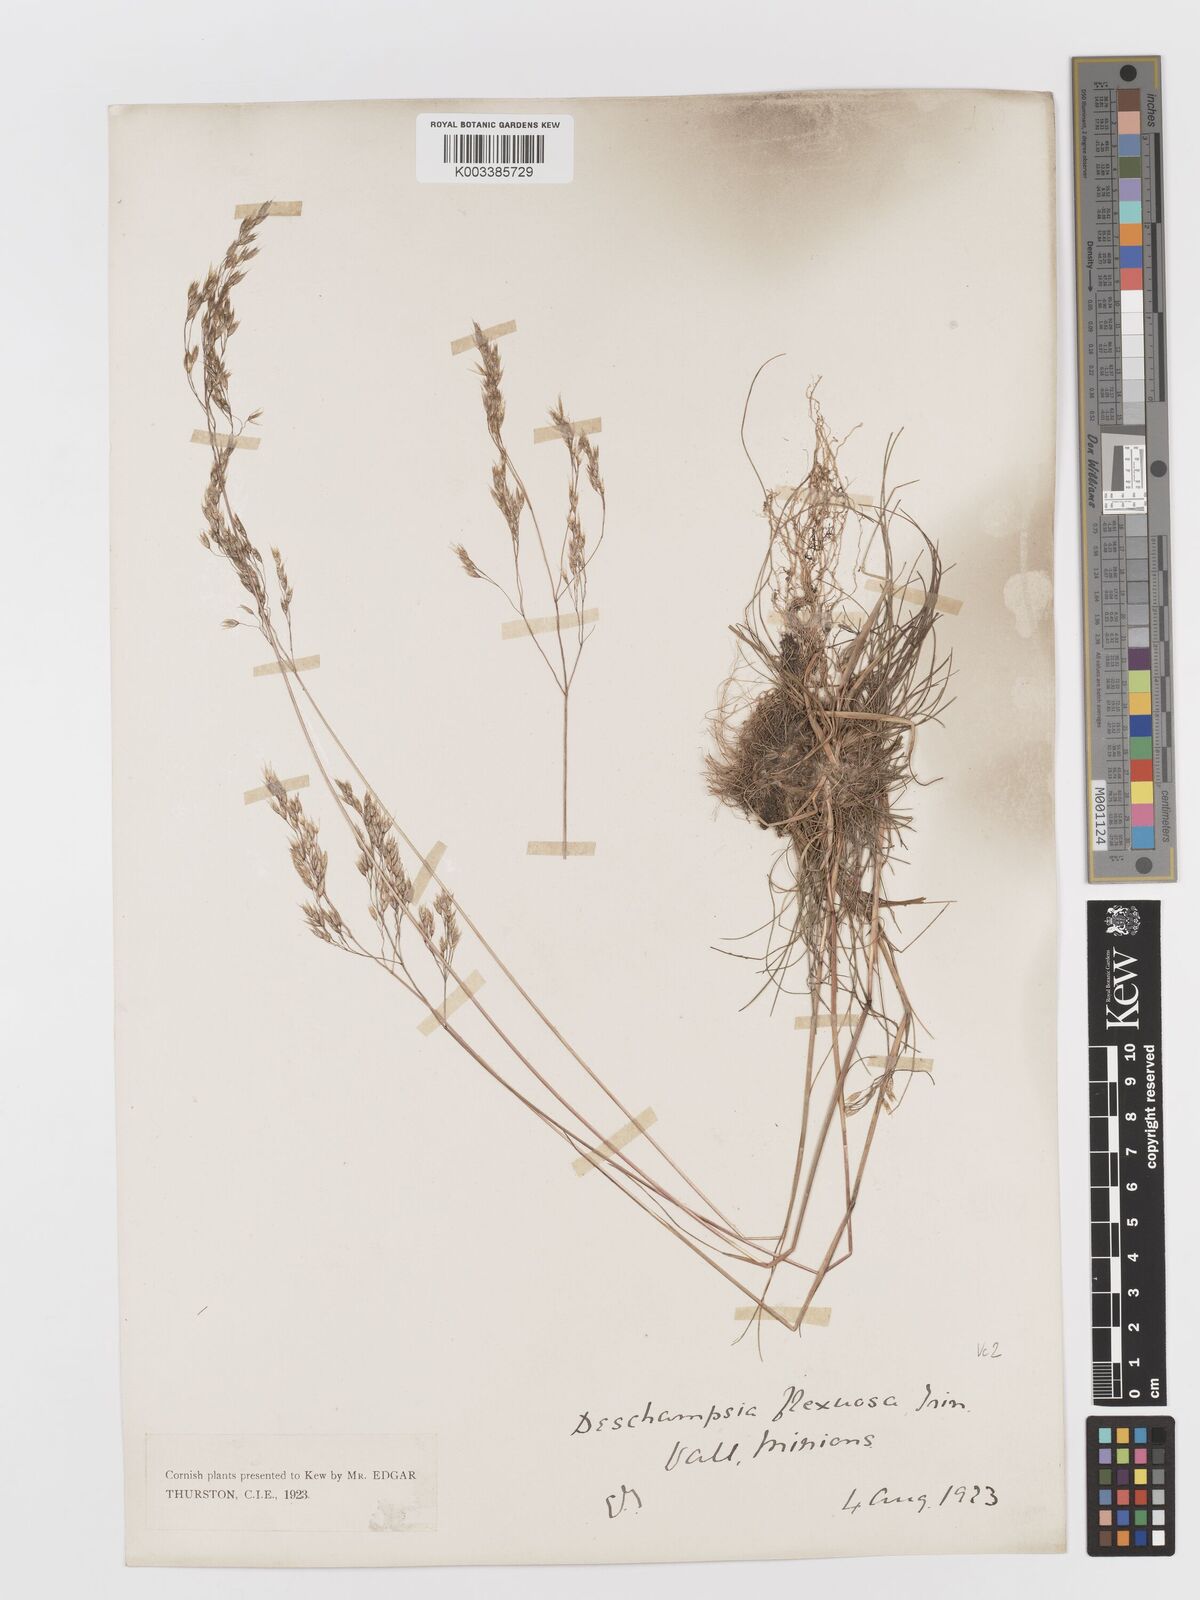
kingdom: Plantae
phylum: Tracheophyta
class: Liliopsida
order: Poales
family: Poaceae
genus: Avenella
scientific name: Avenella flexuosa
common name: Wavy hairgrass
